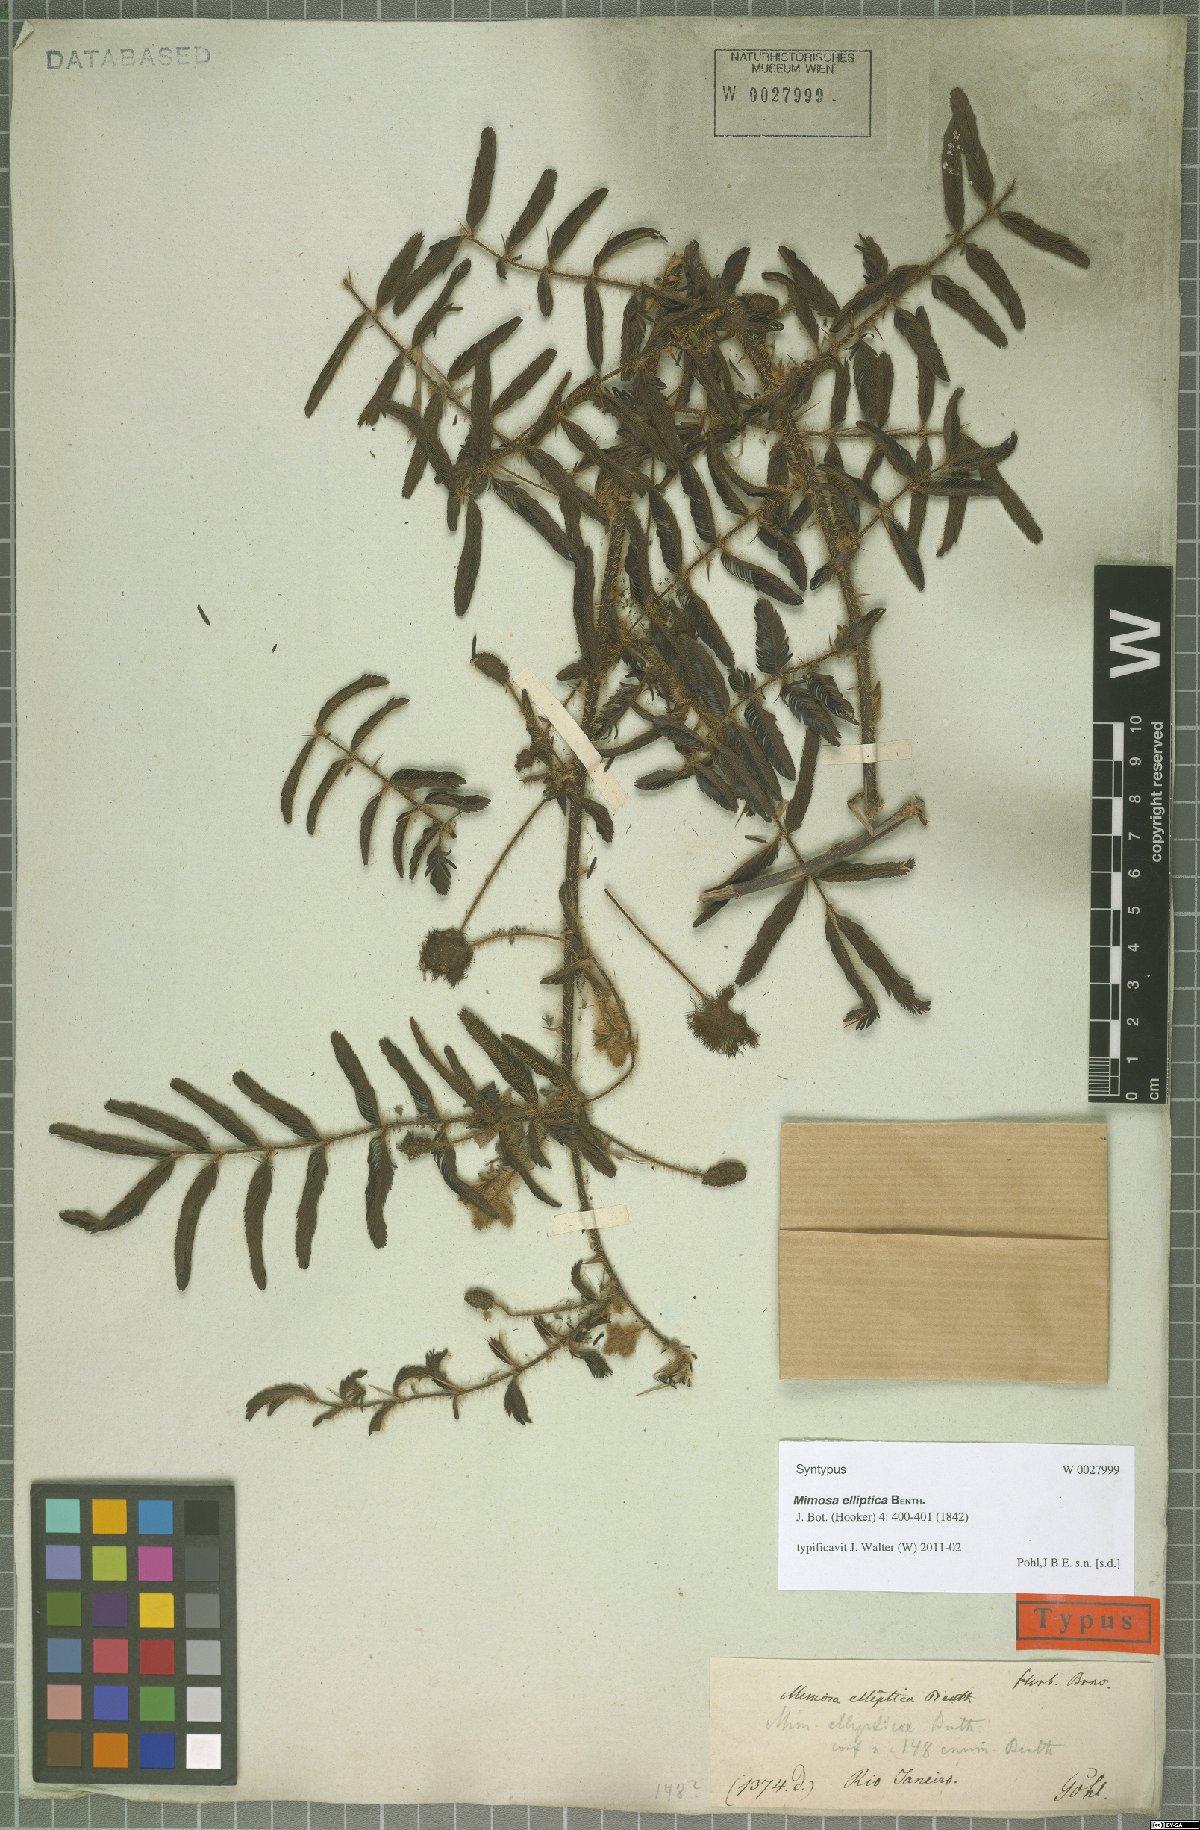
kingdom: Plantae
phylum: Tracheophyta
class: Magnoliopsida
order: Fabales
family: Fabaceae
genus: Mimosa
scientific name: Mimosa elliptica
